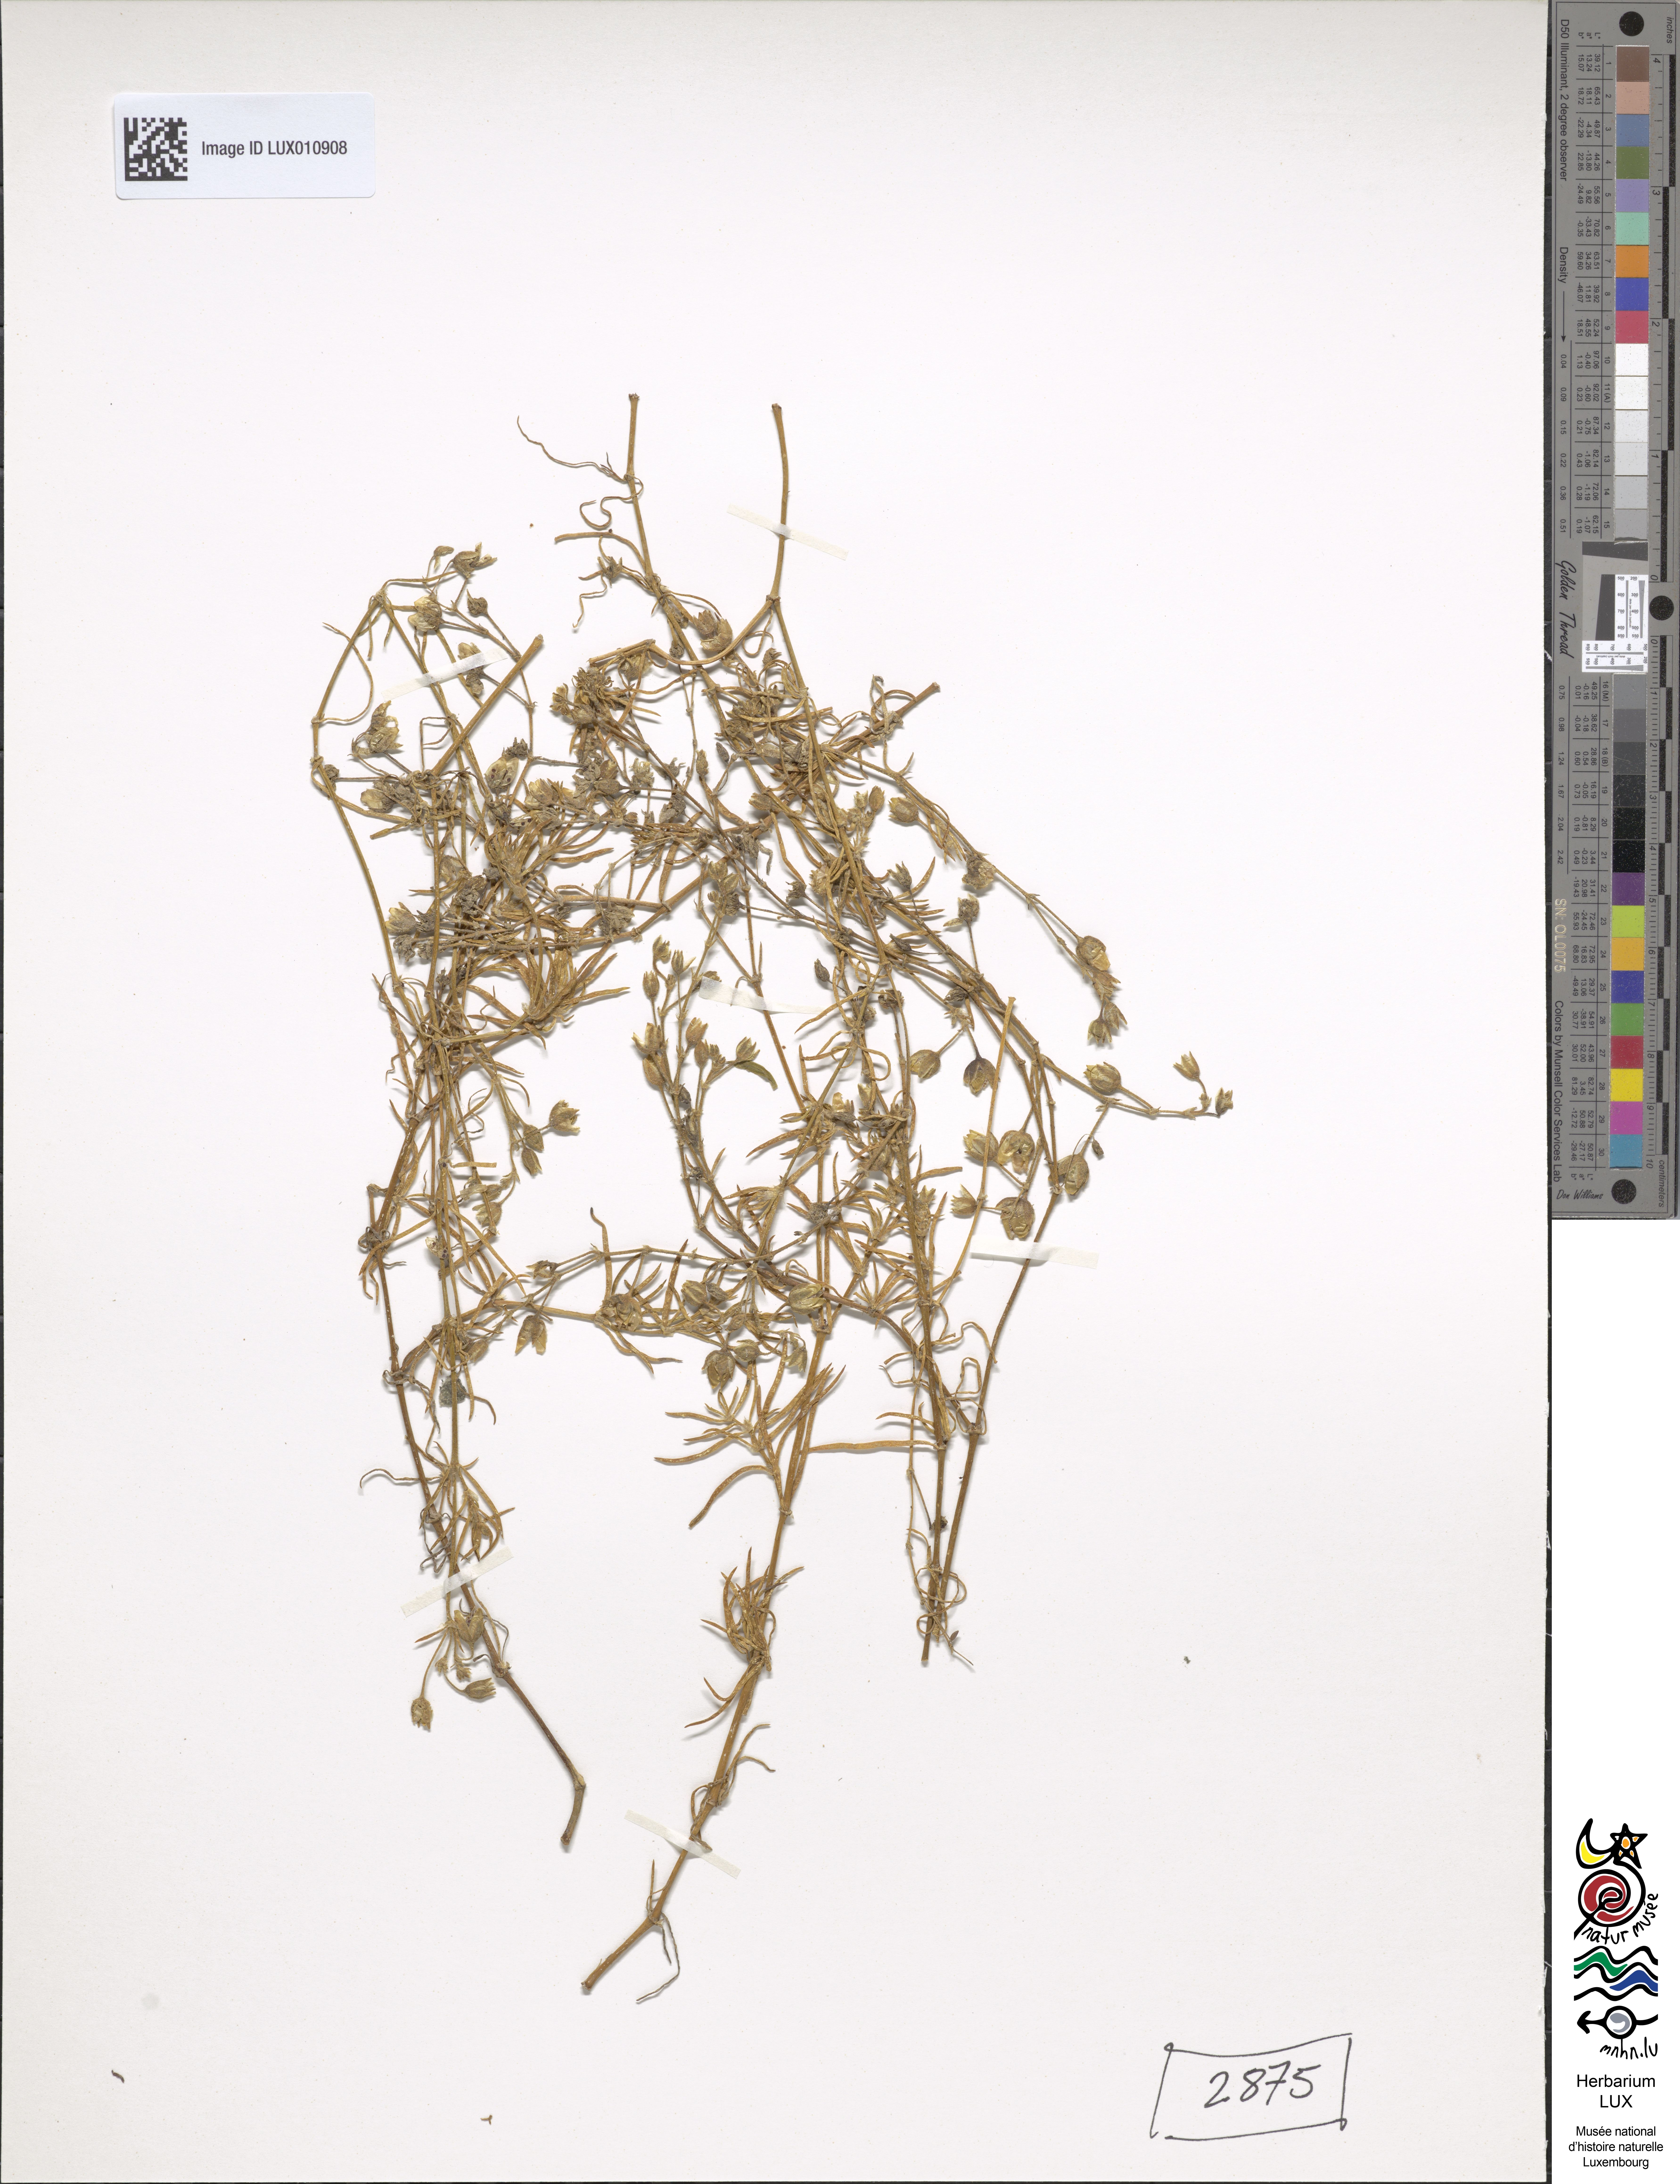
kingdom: Plantae
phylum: Tracheophyta
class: Magnoliopsida
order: Caryophyllales
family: Caryophyllaceae
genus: Spergularia
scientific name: Spergularia media
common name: Greater sea-spurrey
